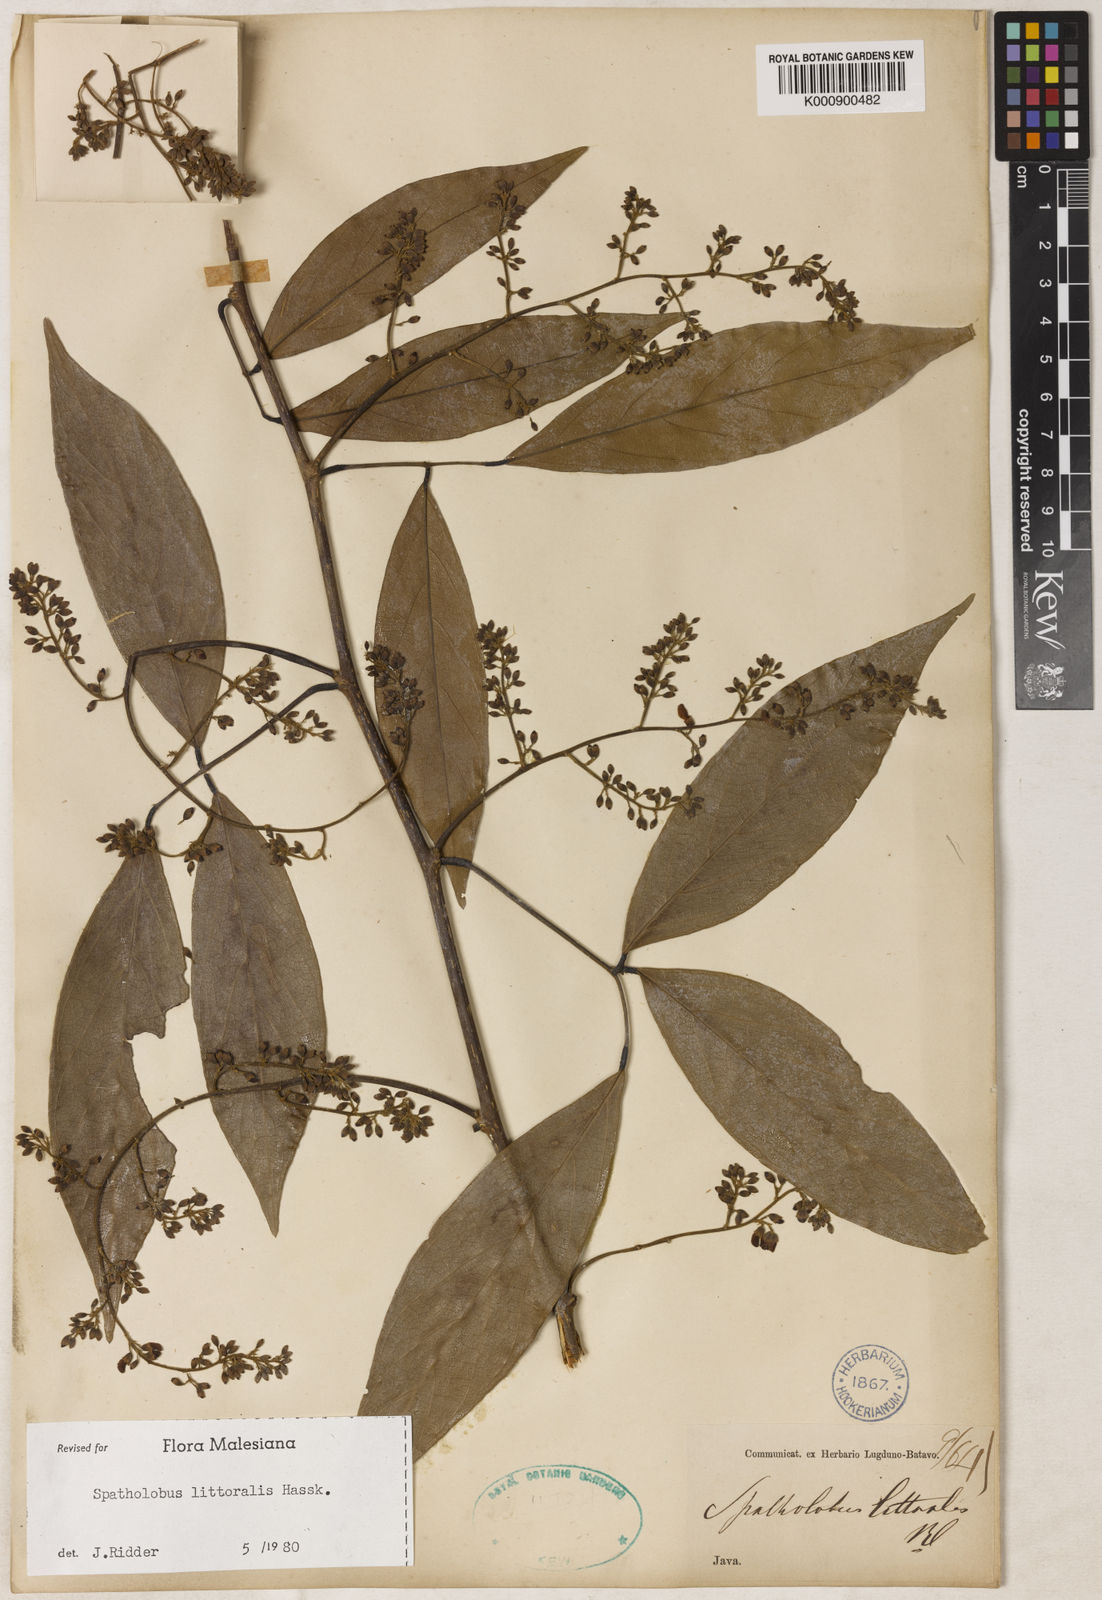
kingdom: Plantae
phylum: Tracheophyta
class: Magnoliopsida
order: Fabales
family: Fabaceae
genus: Spatholobus
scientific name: Spatholobus littoralis
